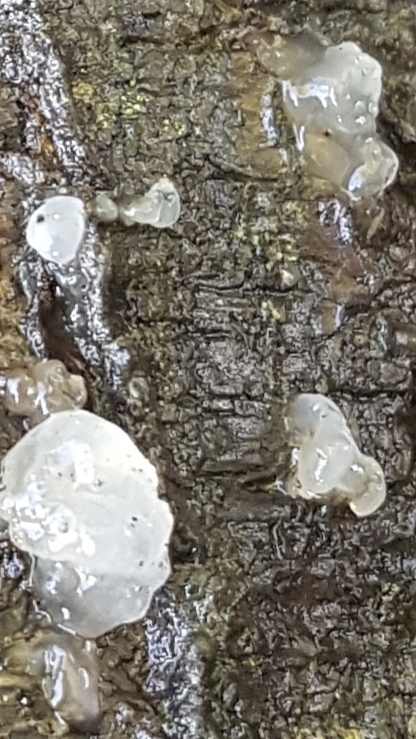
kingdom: Fungi
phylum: Basidiomycota
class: Agaricomycetes
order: Auriculariales
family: Hyaloriaceae
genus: Myxarium
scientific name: Myxarium
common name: bævretop
